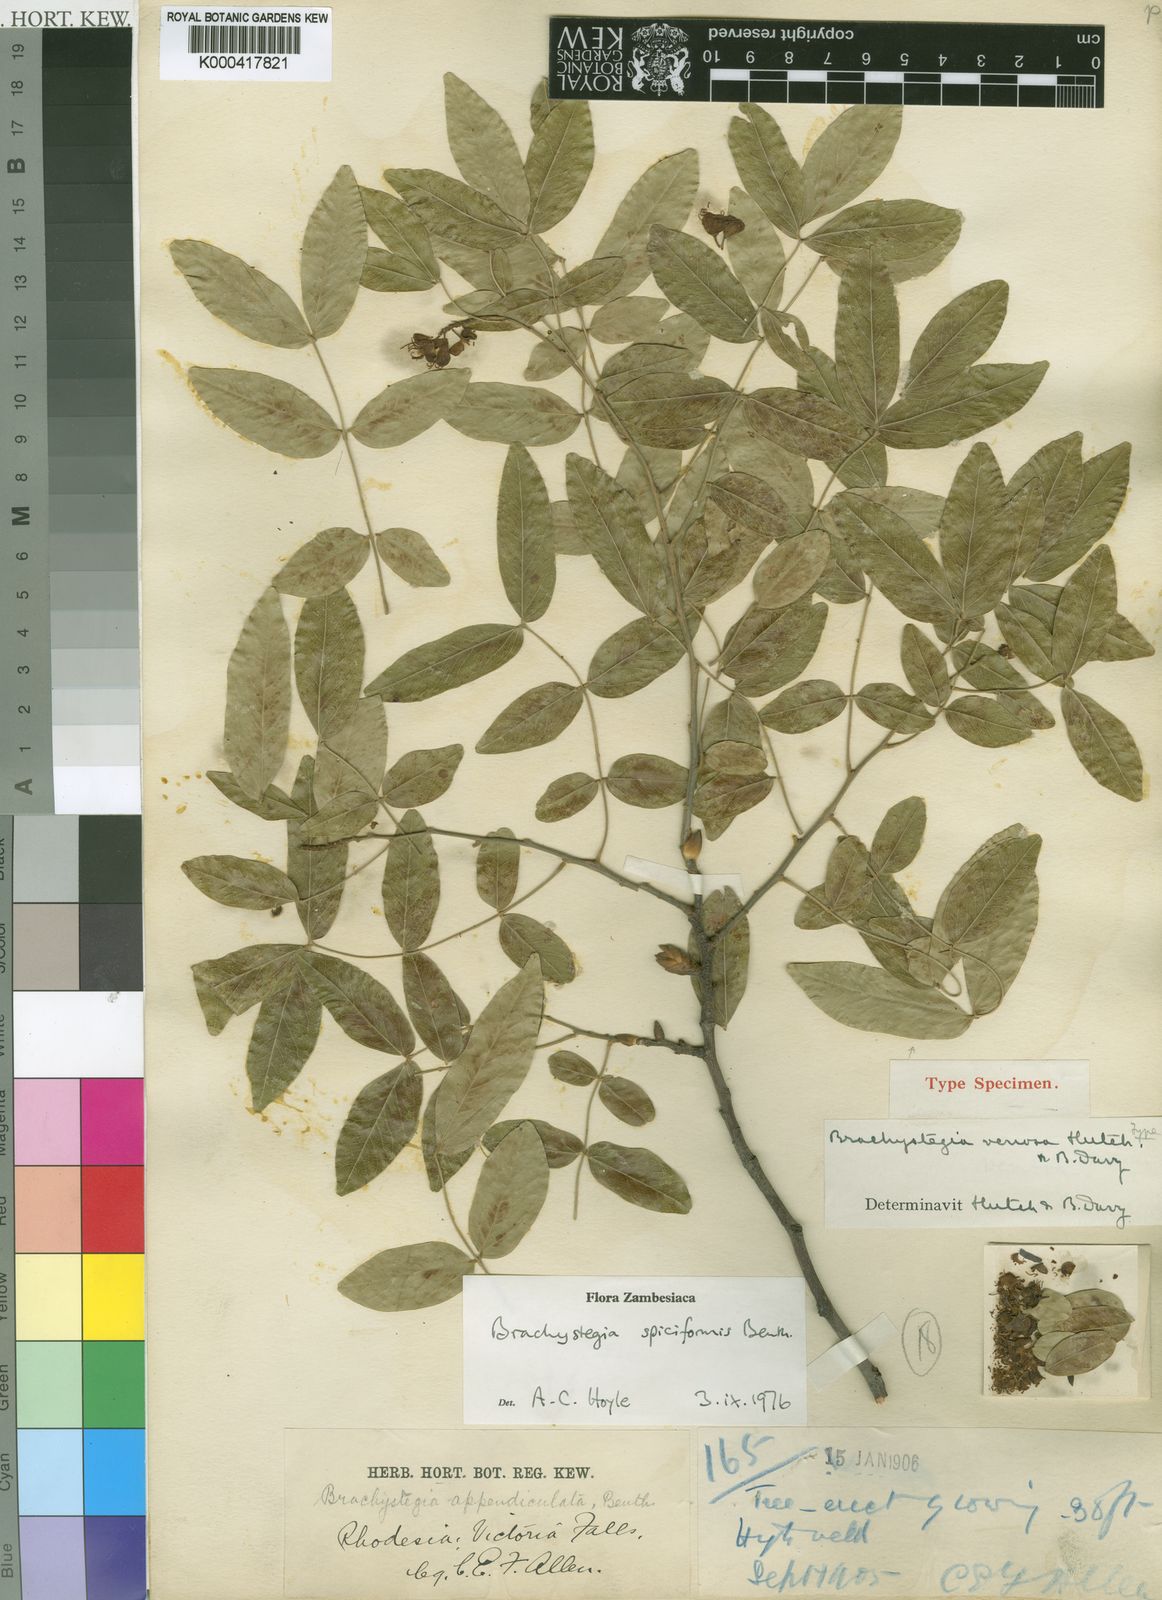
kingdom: Plantae
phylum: Tracheophyta
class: Magnoliopsida
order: Fabales
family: Fabaceae
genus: Brachystegia
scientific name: Brachystegia spiciformis
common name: Zebrawood
